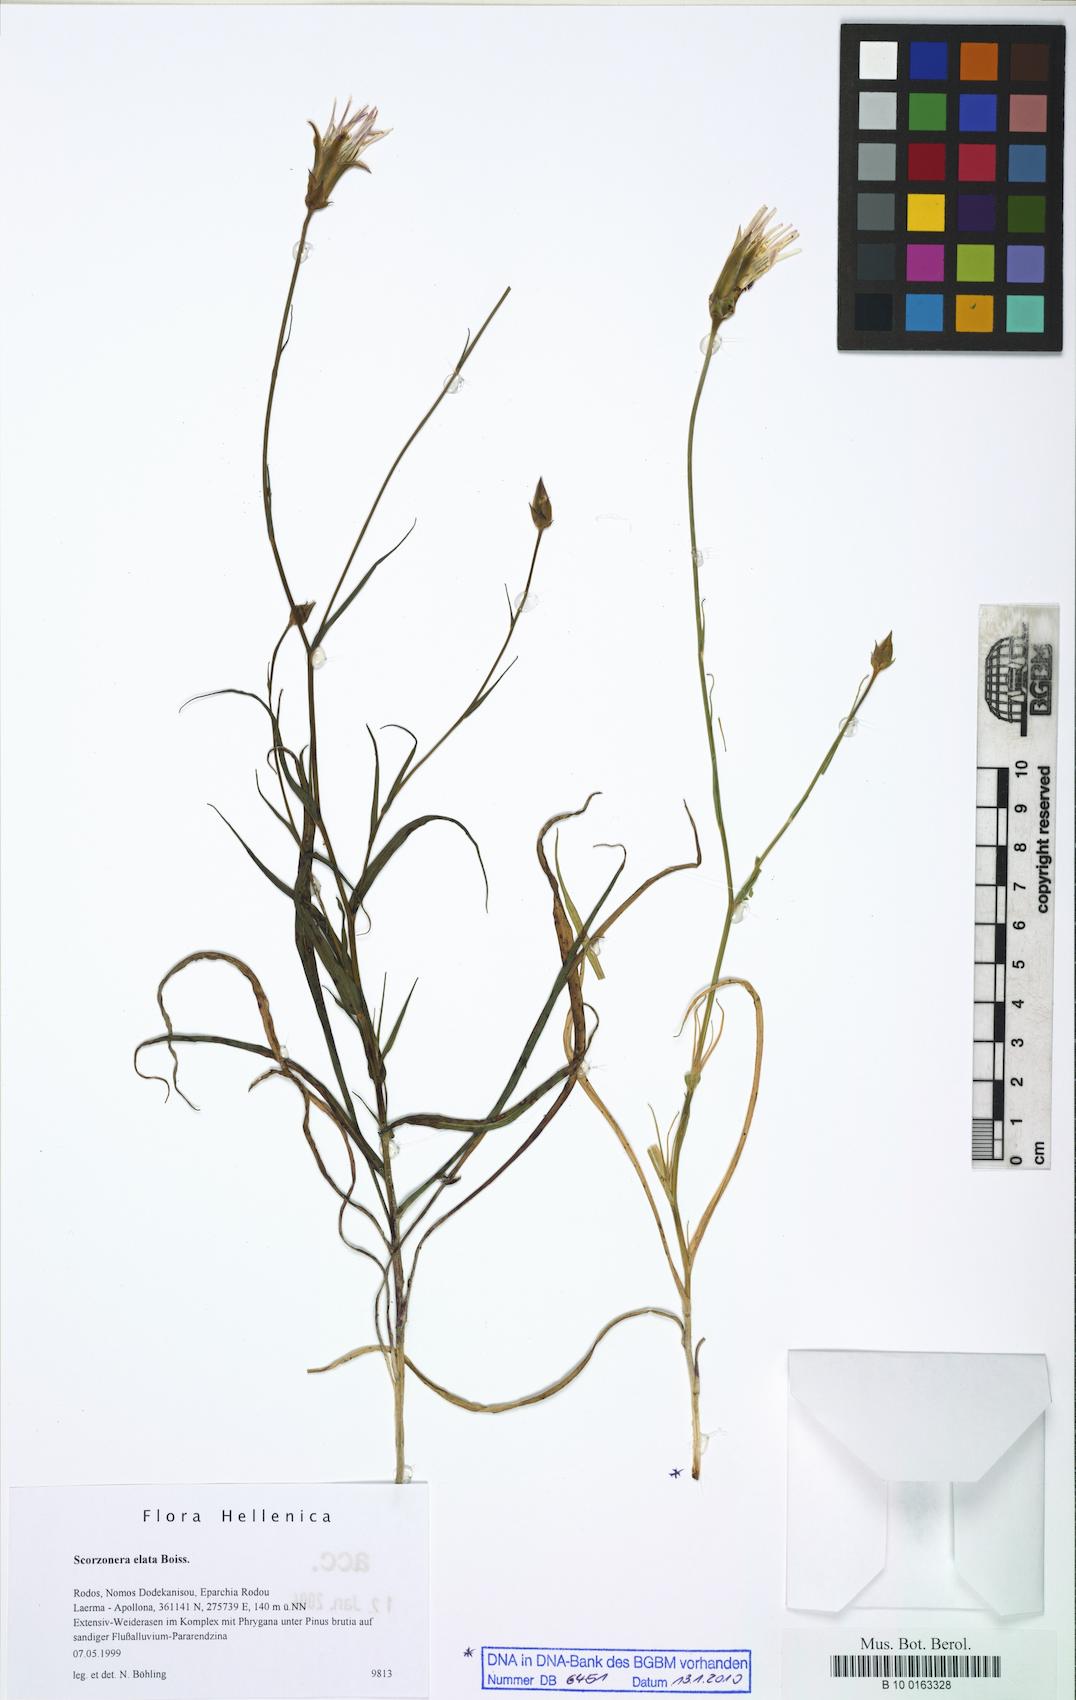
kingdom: Plantae
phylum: Tracheophyta
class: Magnoliopsida
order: Asterales
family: Asteraceae
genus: Candollea
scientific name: Candollea elata
